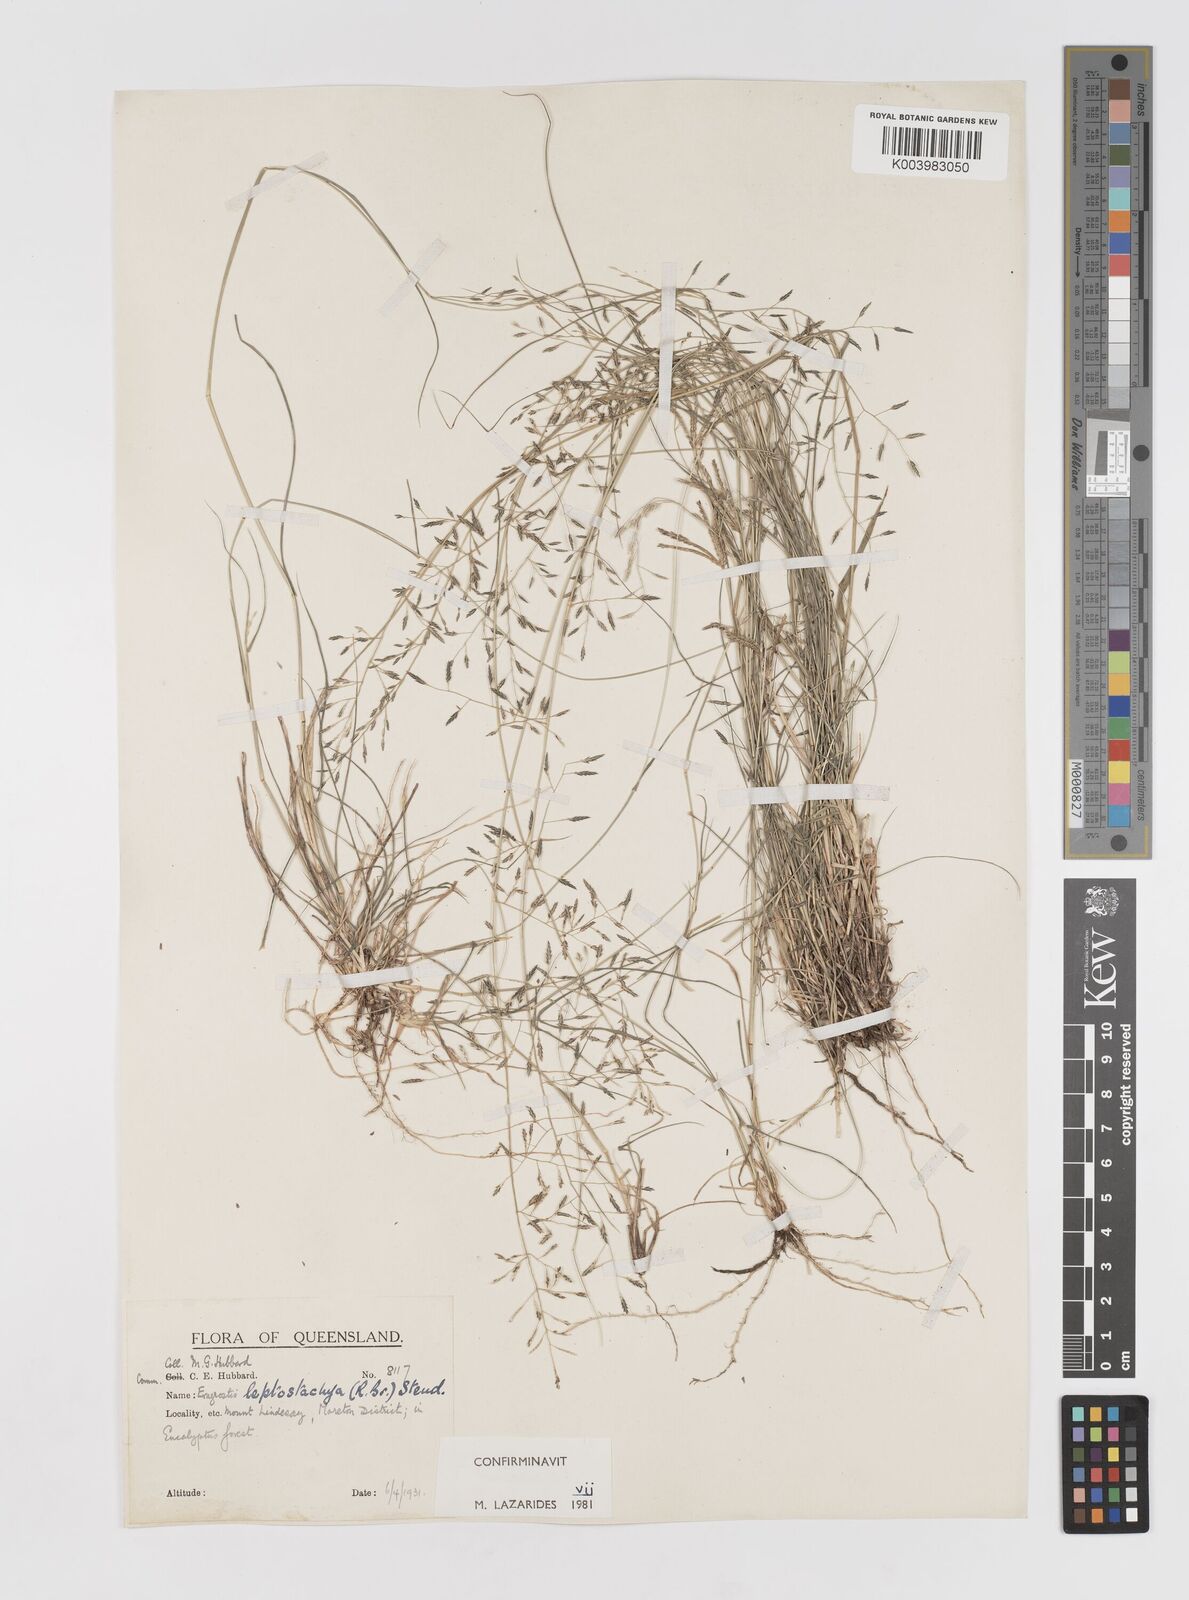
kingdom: Plantae
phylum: Tracheophyta
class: Liliopsida
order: Poales
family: Poaceae
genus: Eragrostis
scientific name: Eragrostis leptostachya
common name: Australian lovegrass
